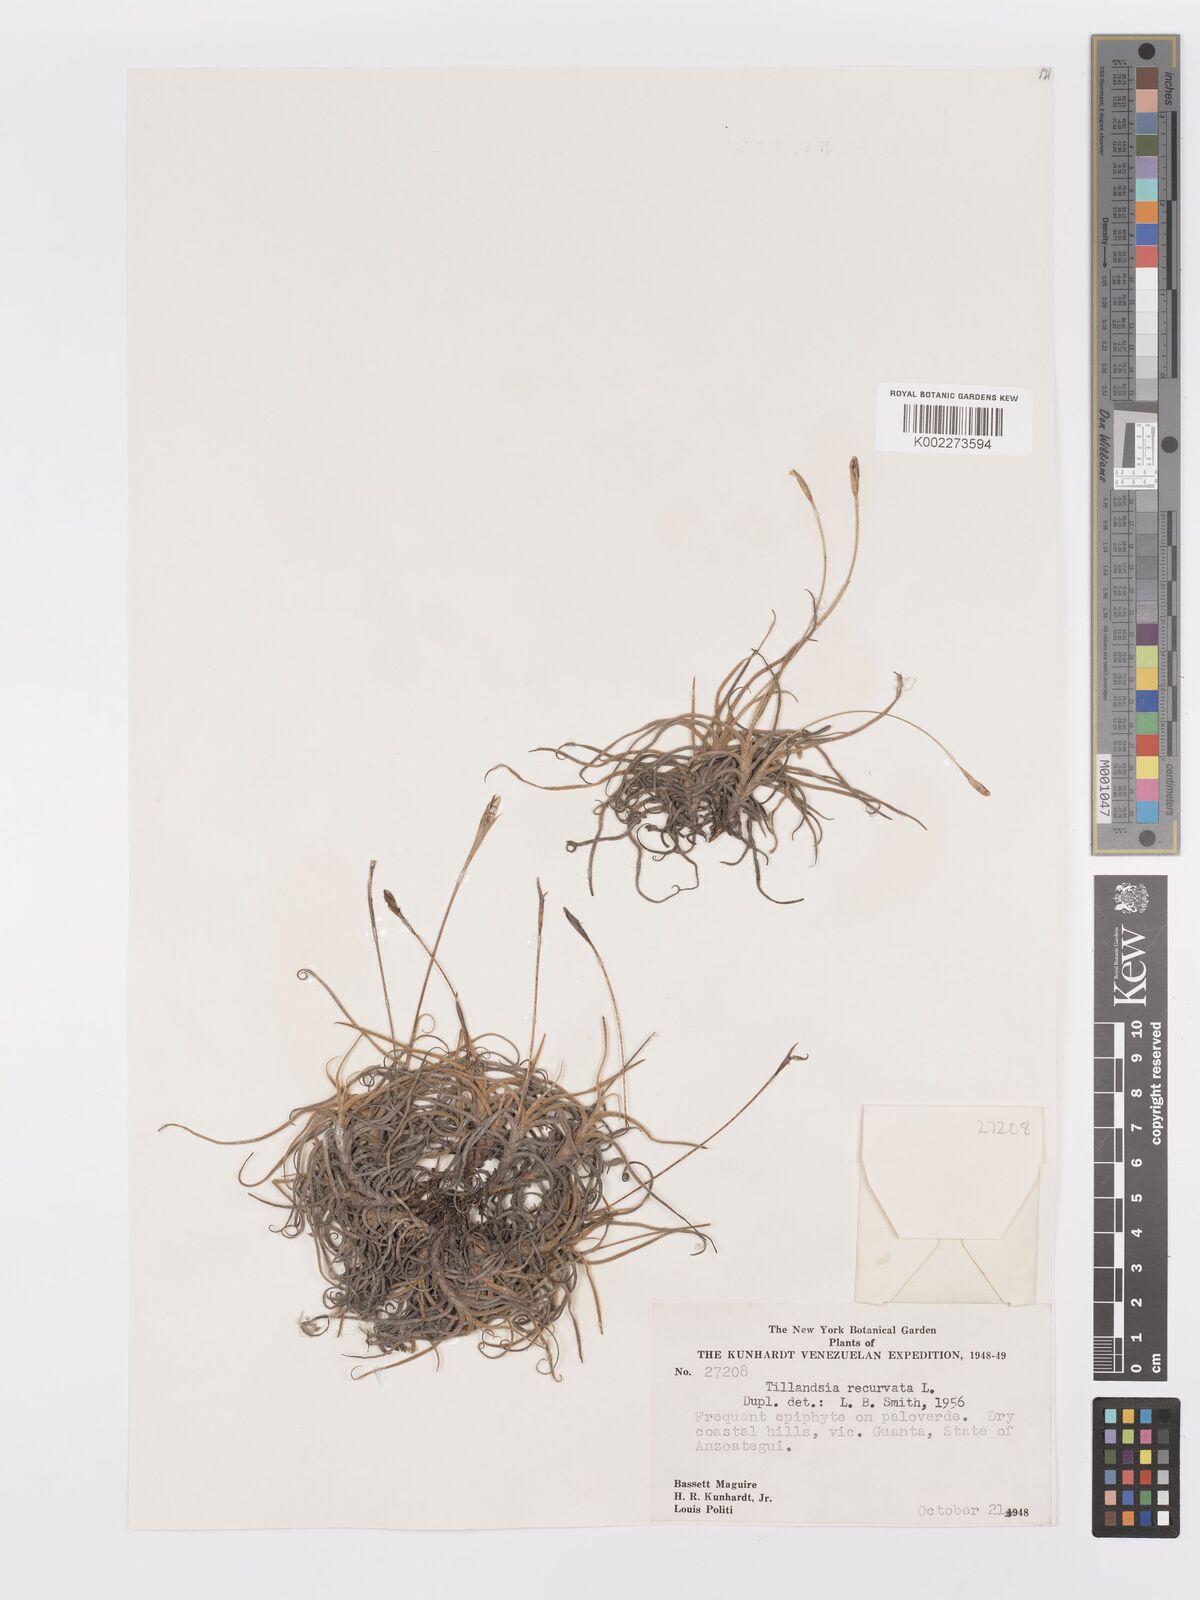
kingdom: Plantae
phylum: Tracheophyta
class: Liliopsida
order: Poales
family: Bromeliaceae
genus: Tillandsia
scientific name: Tillandsia recurvata
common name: Small ballmoss
